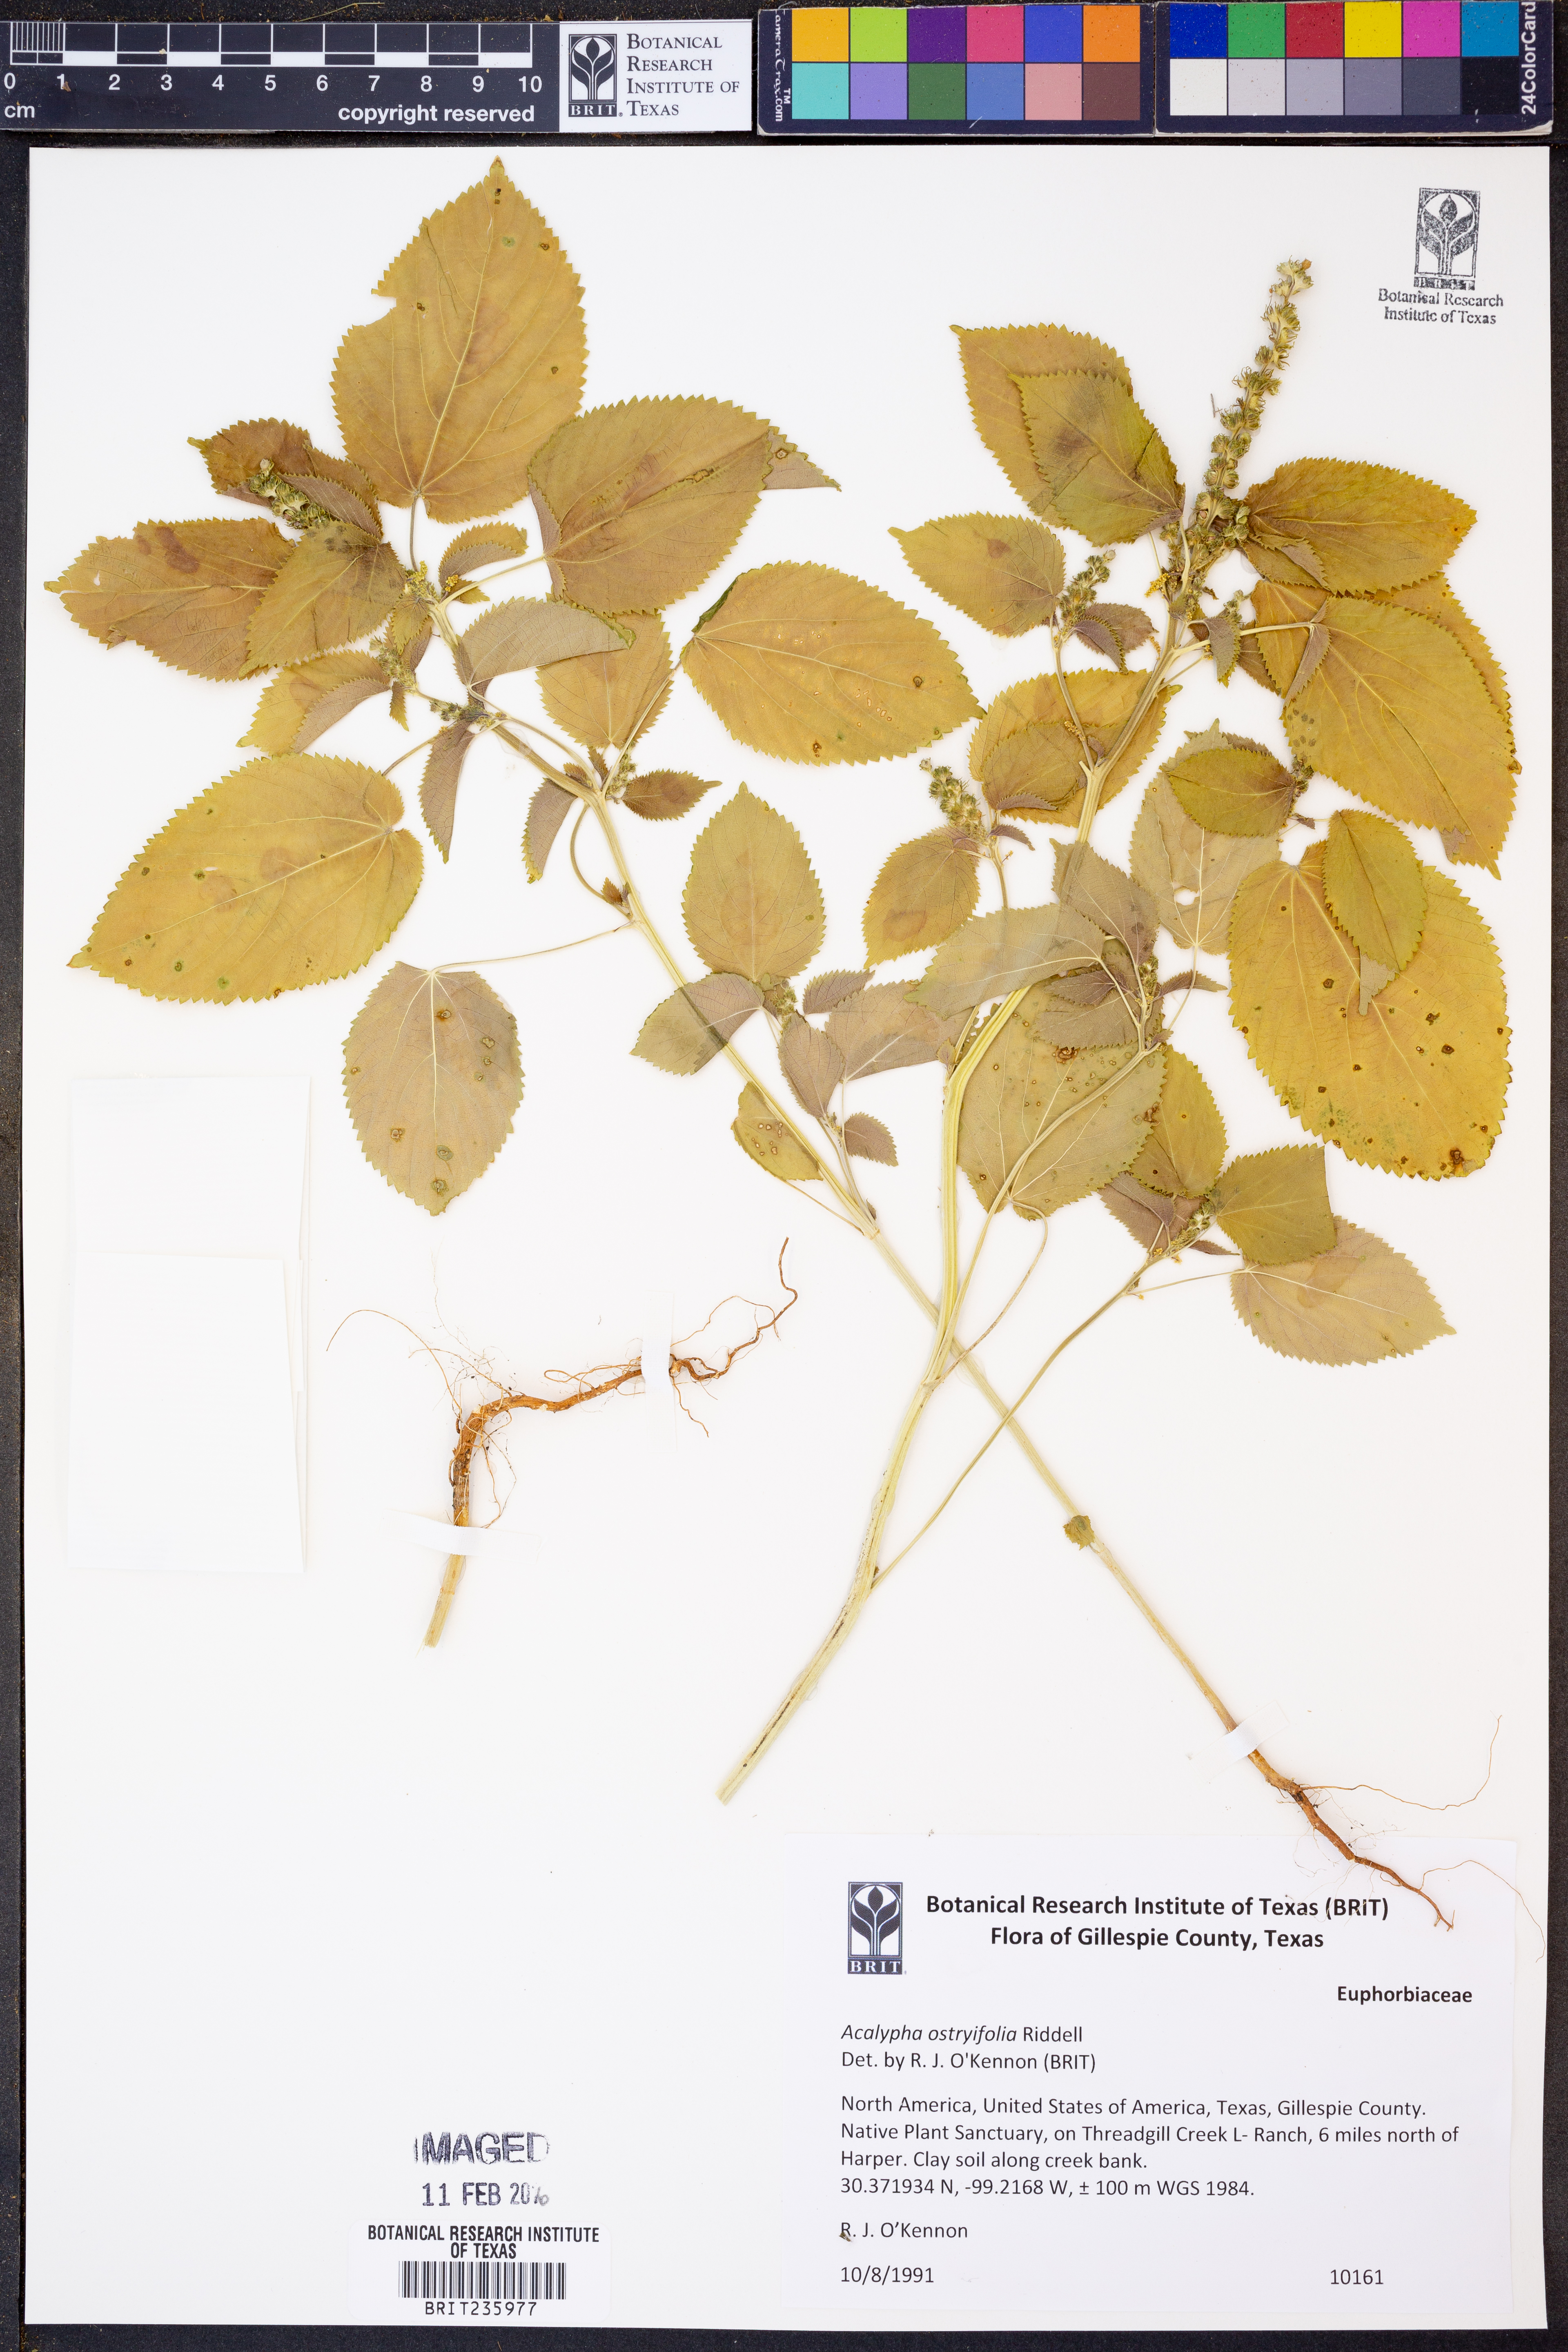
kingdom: Plantae
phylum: Tracheophyta
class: Magnoliopsida
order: Malpighiales
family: Euphorbiaceae
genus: Acalypha
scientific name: Acalypha persimilis
